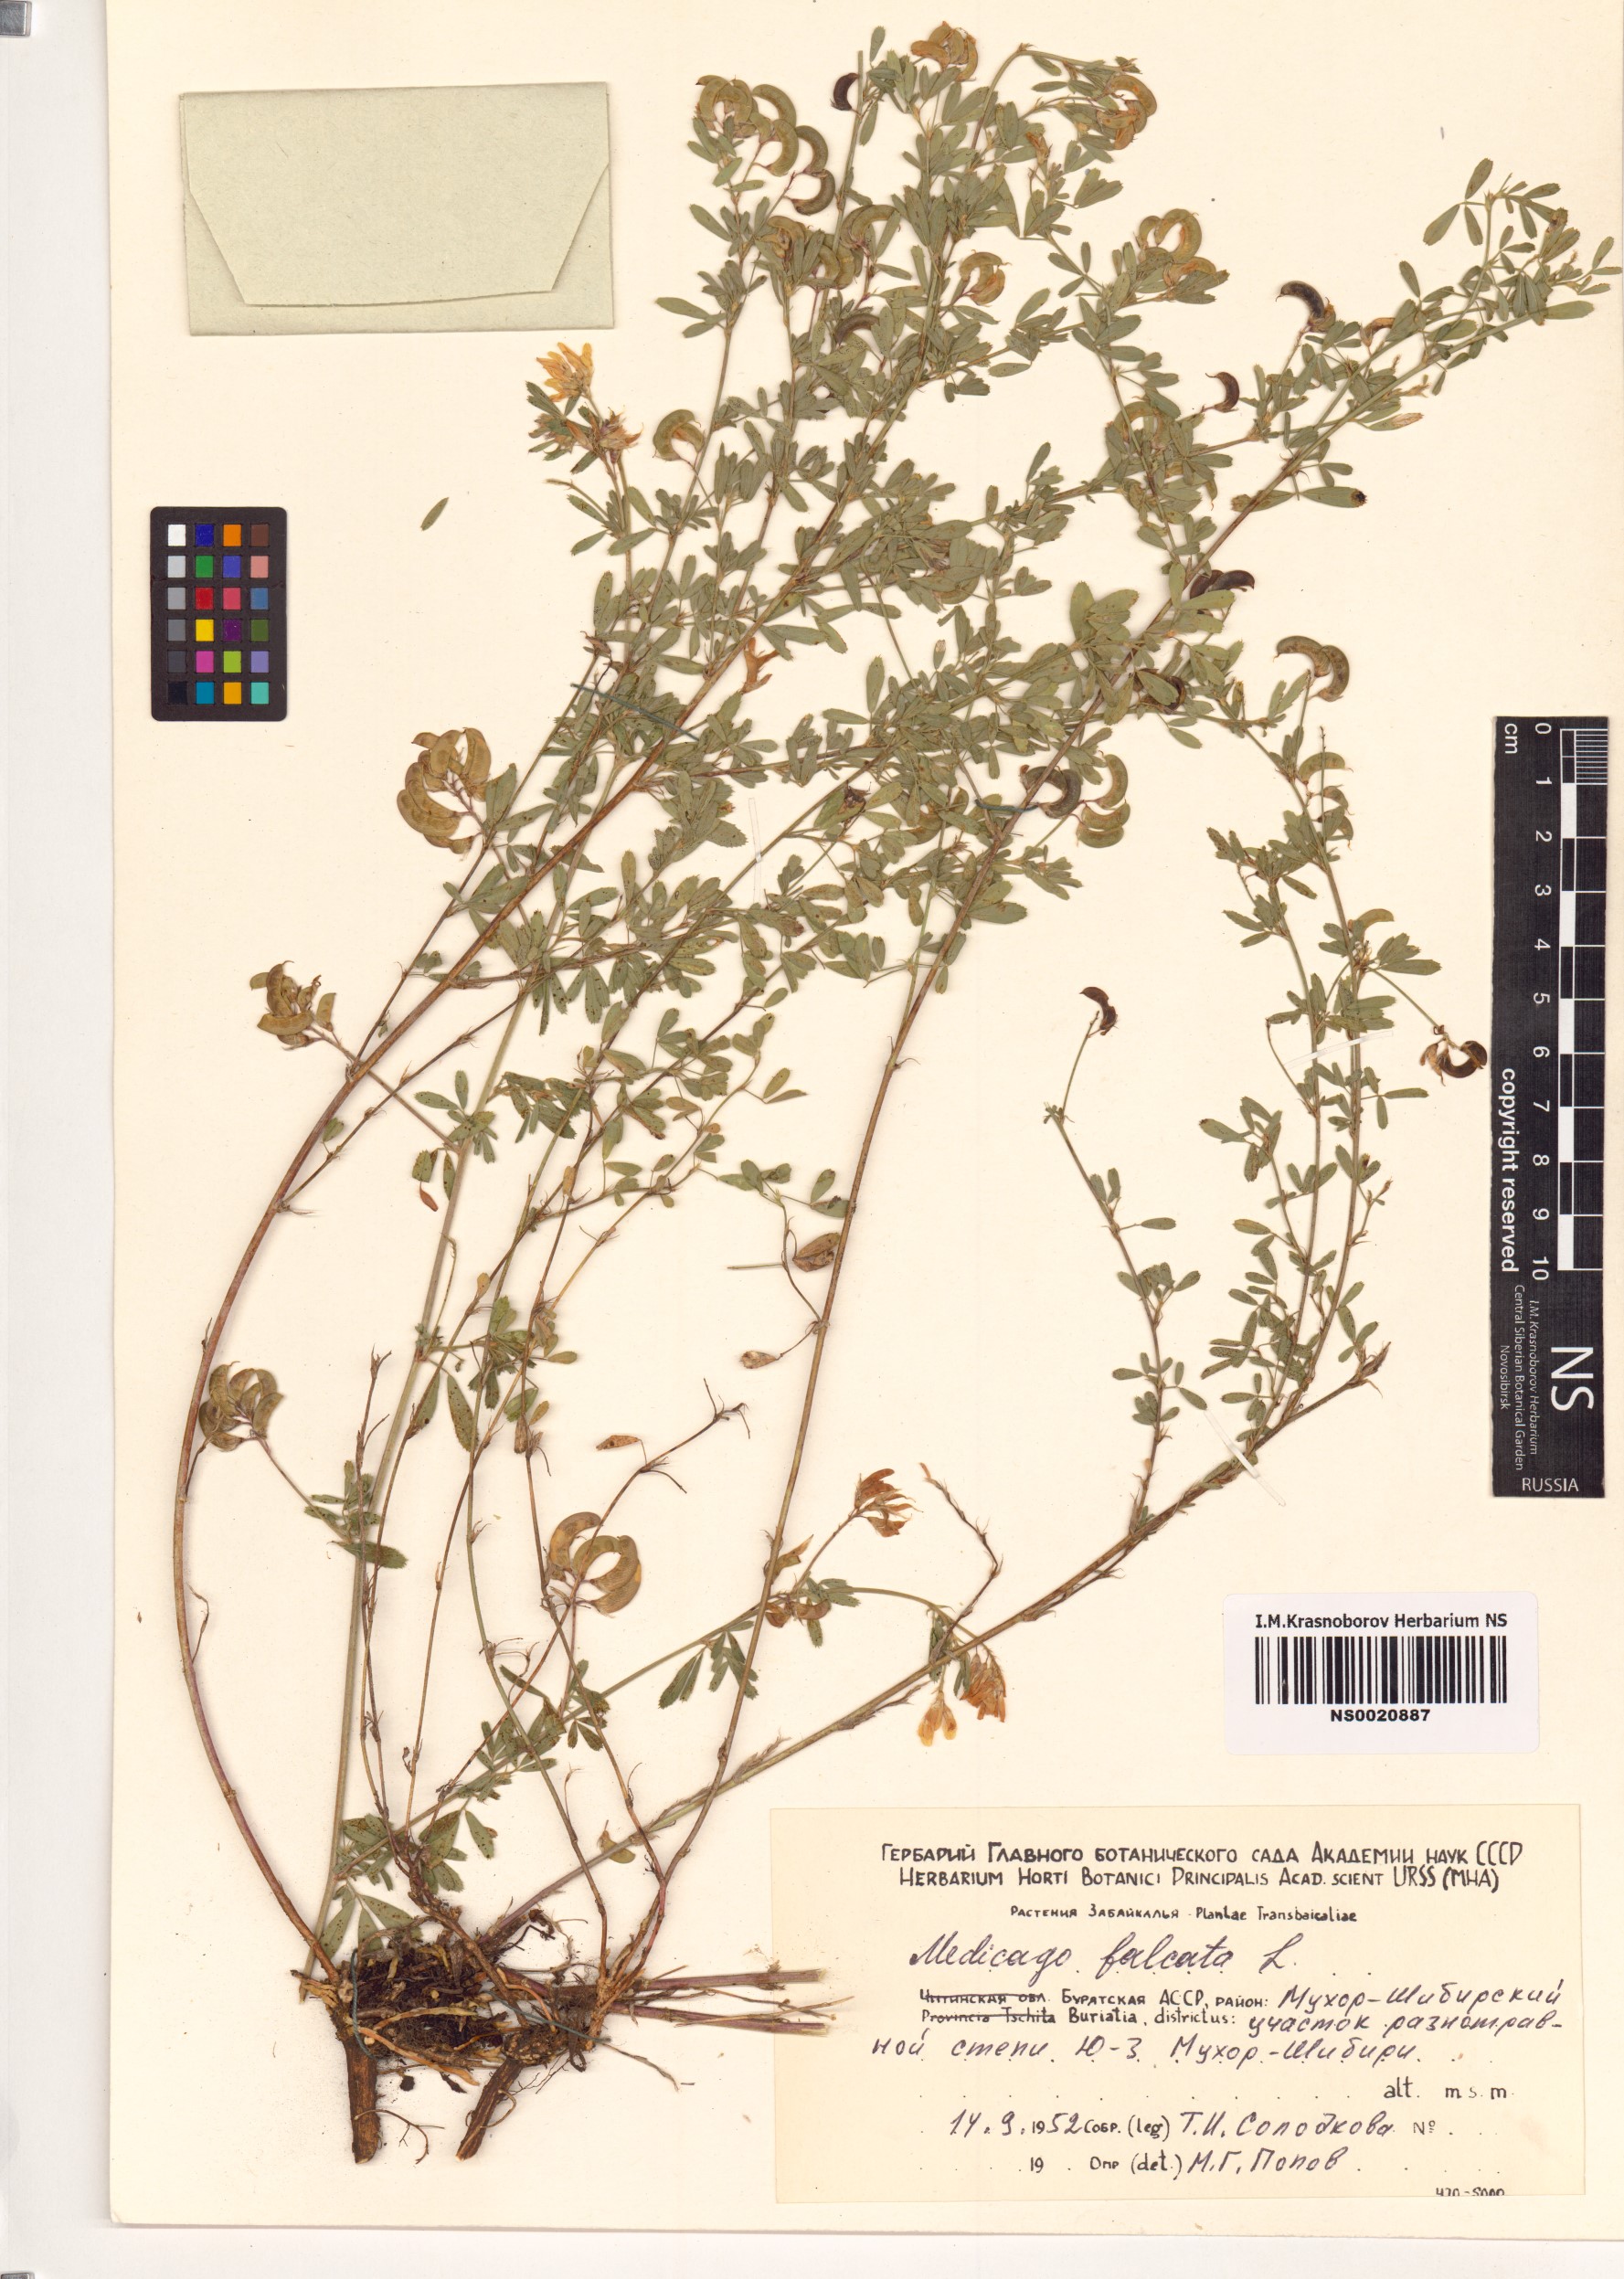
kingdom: Plantae
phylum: Tracheophyta
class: Magnoliopsida
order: Fabales
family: Fabaceae
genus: Medicago
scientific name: Medicago falcata
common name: Sickle medick
